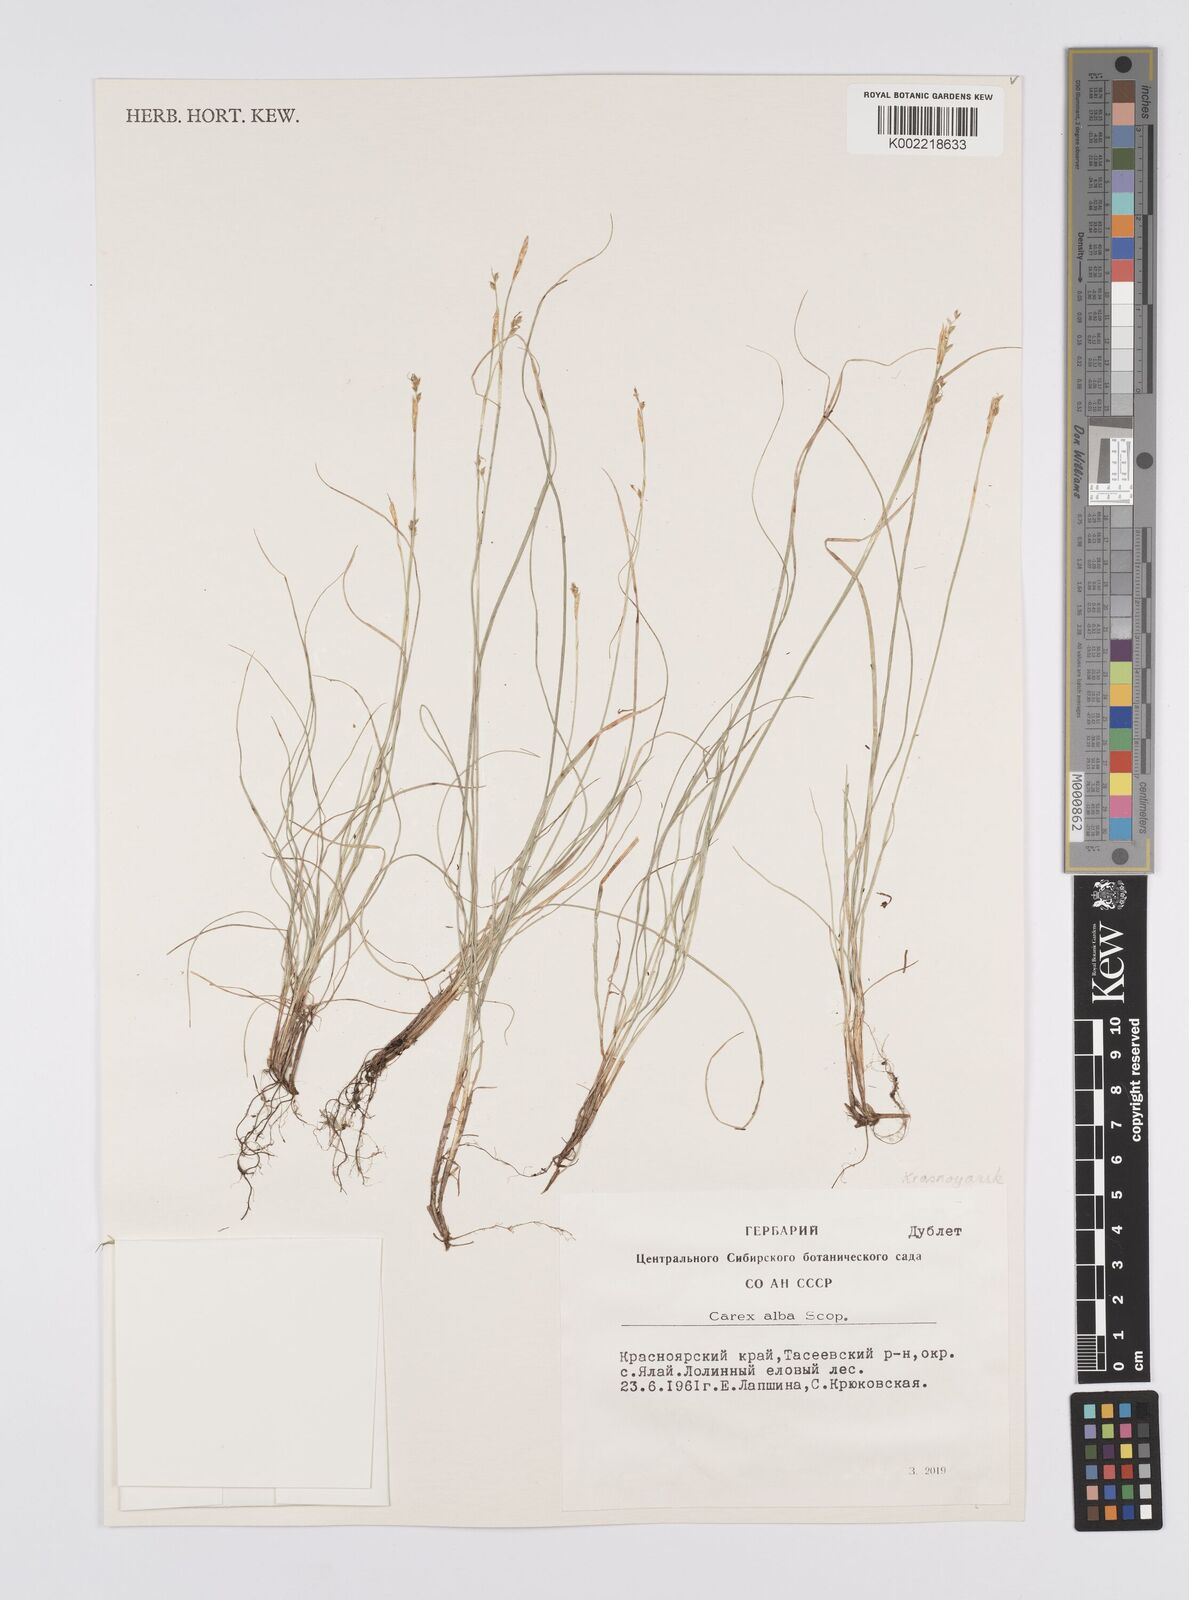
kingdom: Plantae
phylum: Tracheophyta
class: Liliopsida
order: Poales
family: Cyperaceae
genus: Carex
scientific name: Carex rariflora
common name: Loose-flowered alpine sedge
